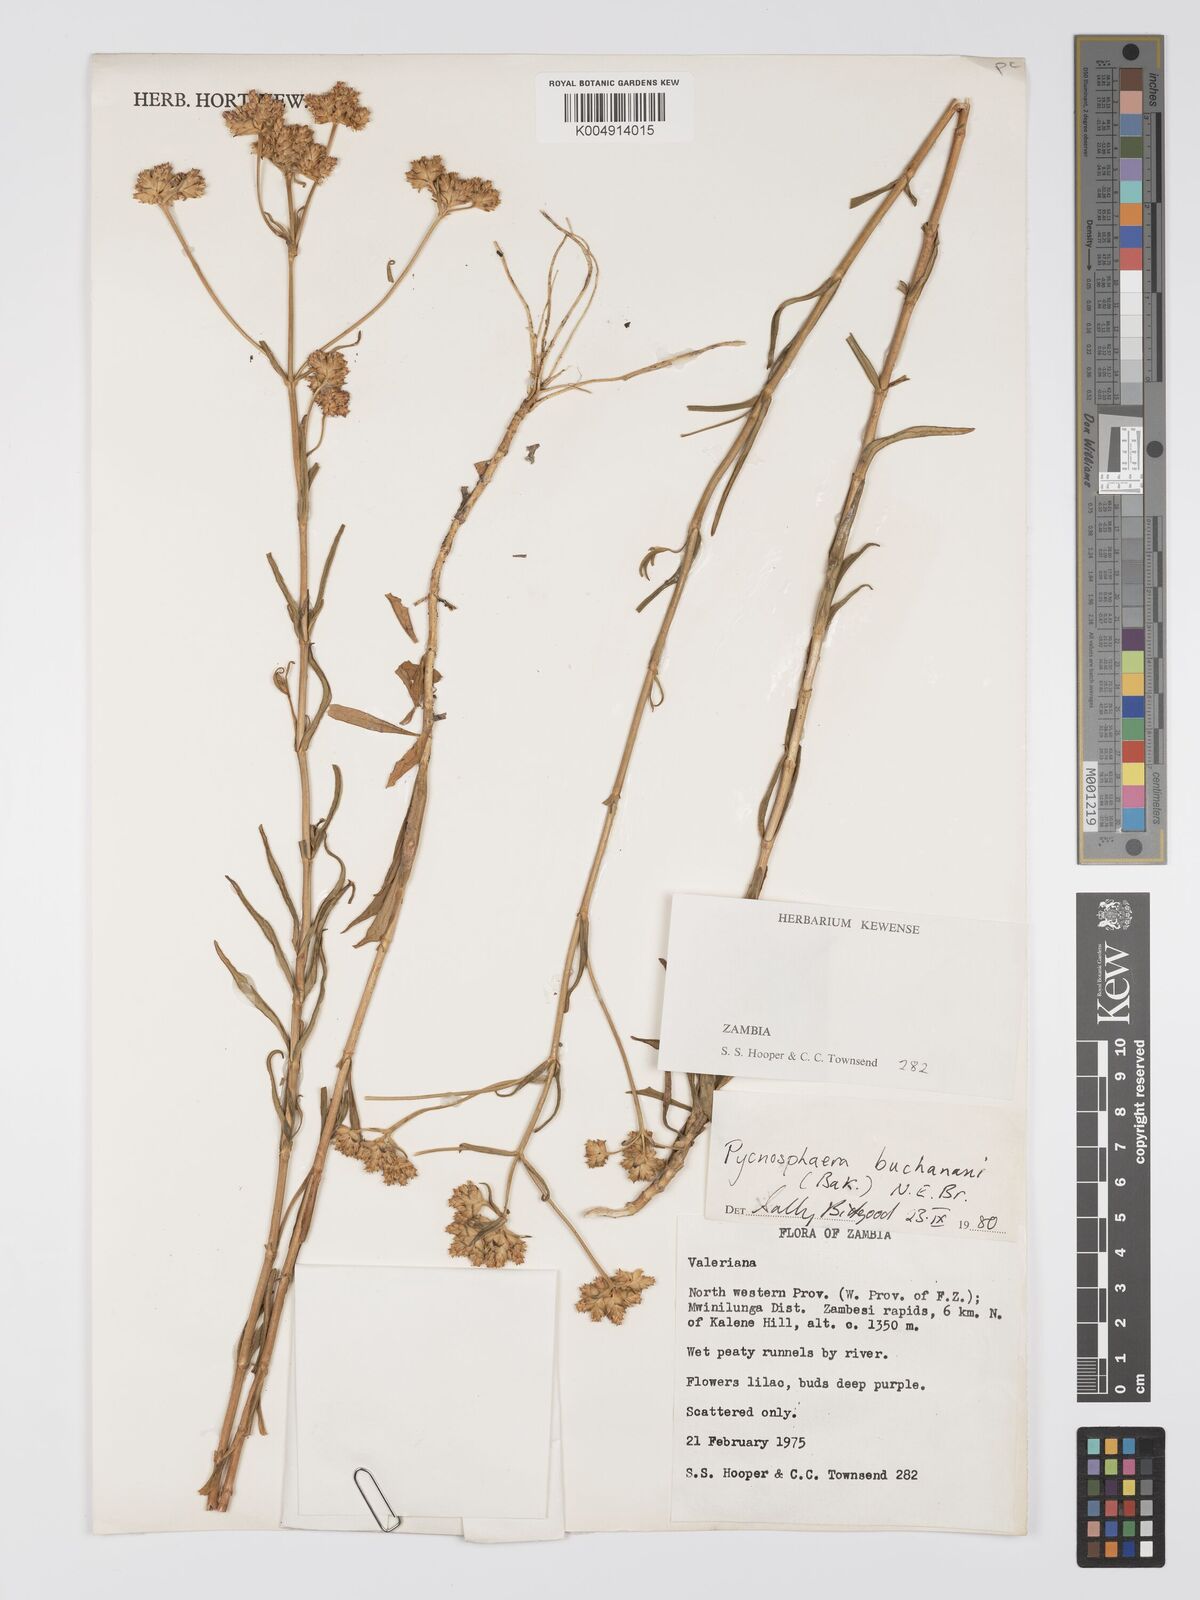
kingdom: Plantae
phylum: Tracheophyta
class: Magnoliopsida
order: Gentianales
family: Gentianaceae
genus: Pycnosphaera
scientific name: Pycnosphaera buchananii
